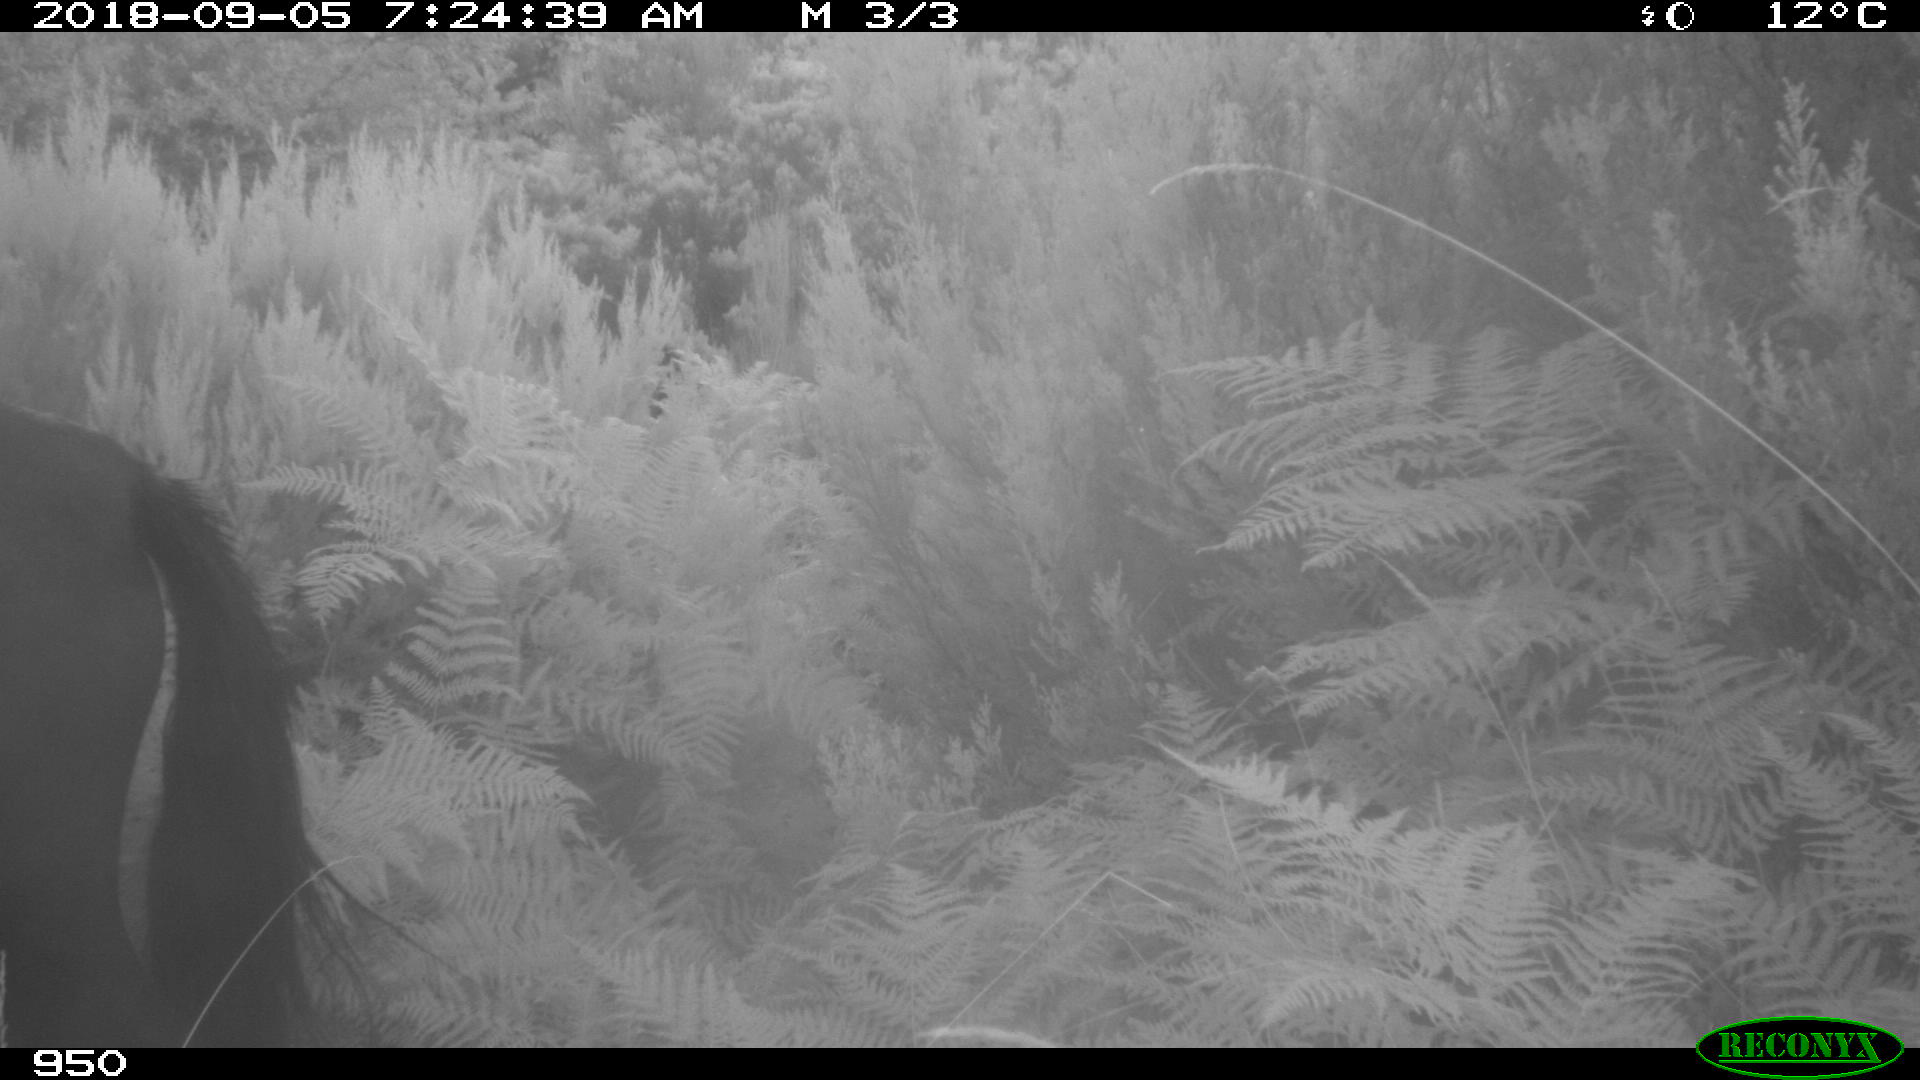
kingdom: Animalia
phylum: Chordata
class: Mammalia
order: Perissodactyla
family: Equidae
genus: Equus
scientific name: Equus caballus
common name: Horse
